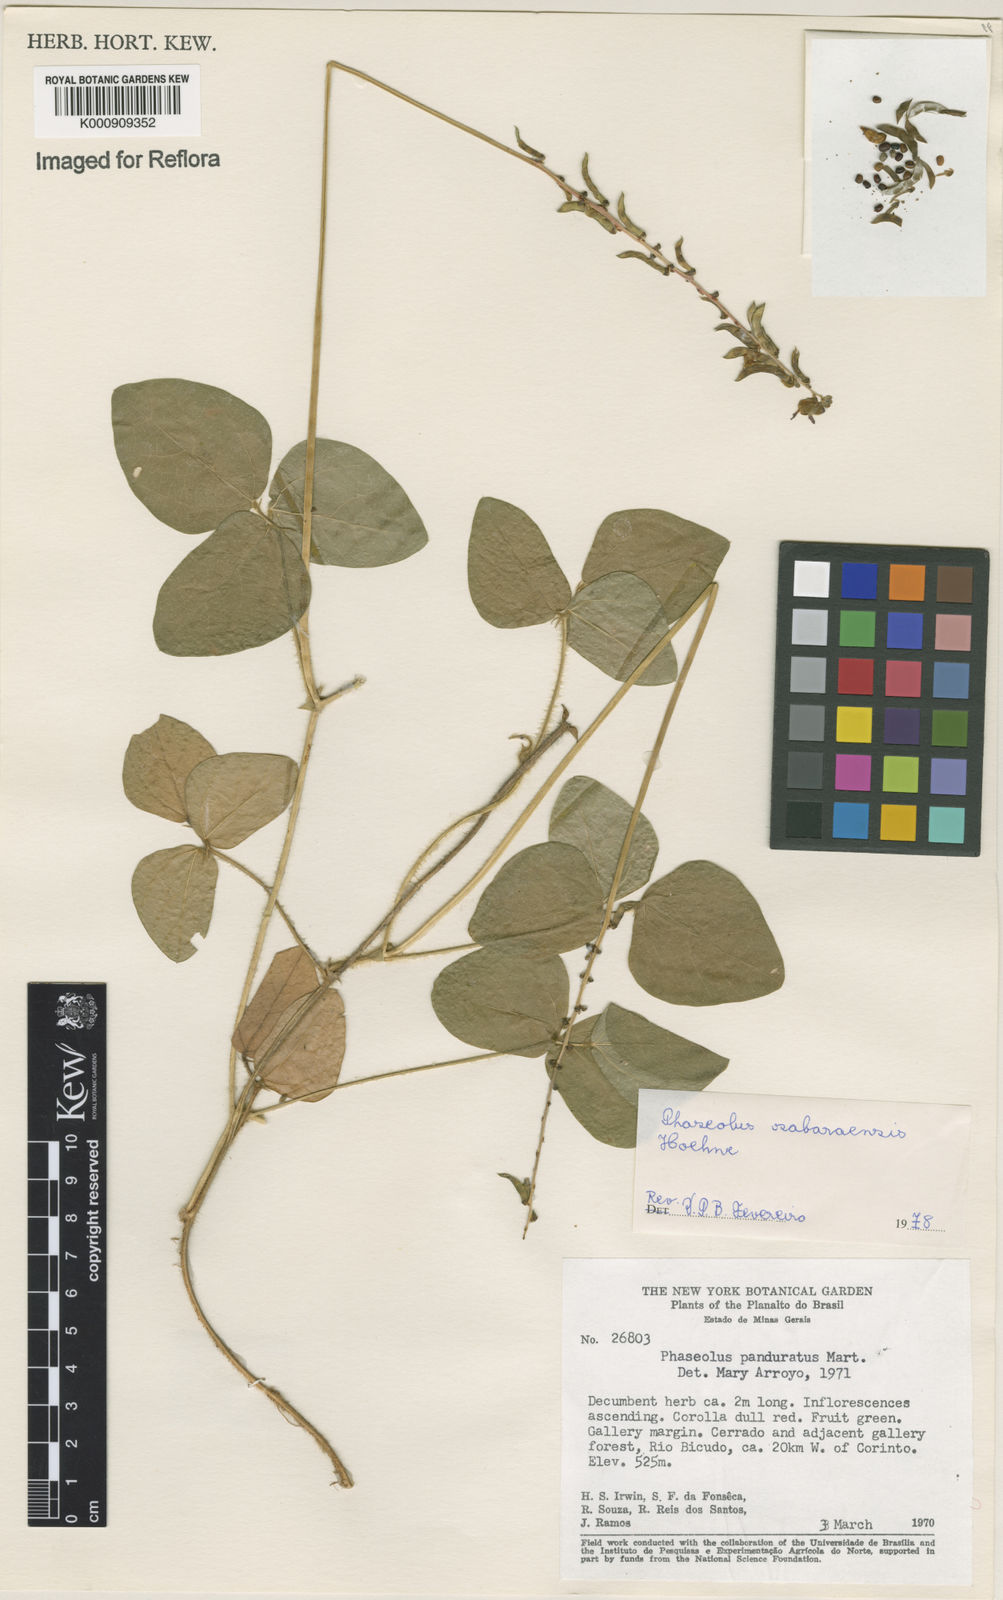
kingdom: Plantae
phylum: Tracheophyta
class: Magnoliopsida
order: Fabales
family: Fabaceae
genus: Macroptilium
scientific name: Macroptilium sabaraense
